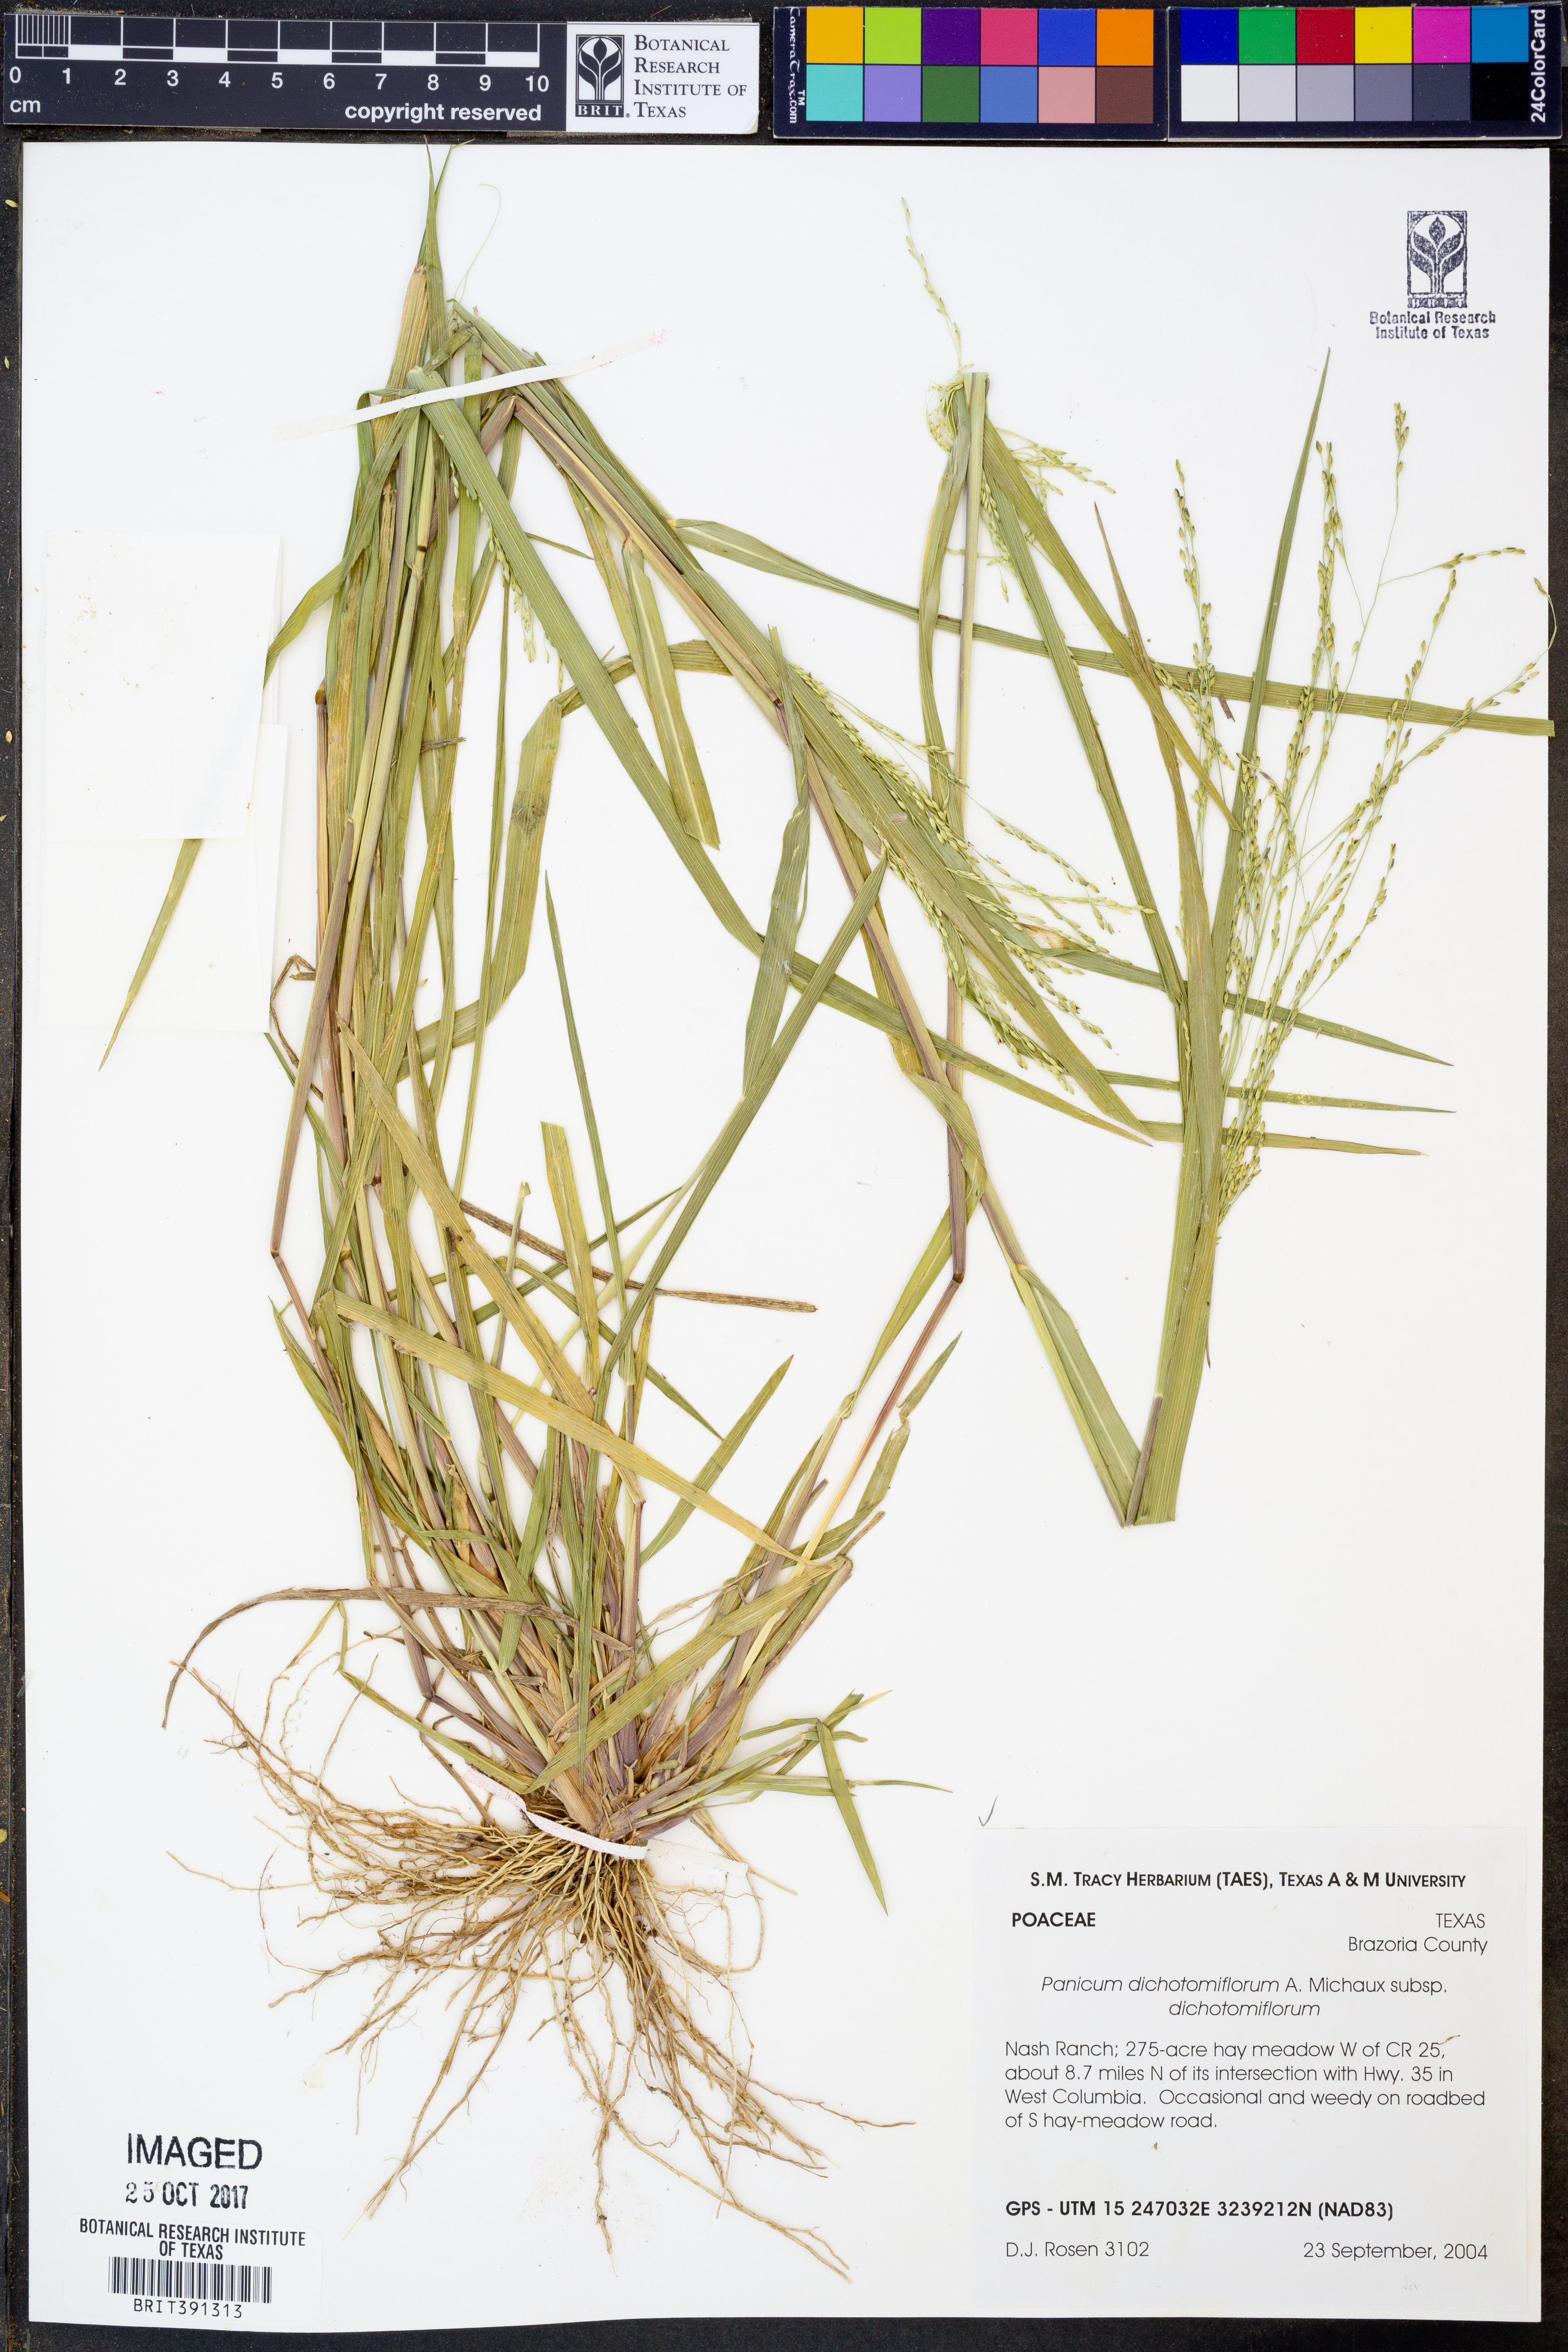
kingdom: Plantae
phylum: Tracheophyta
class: Liliopsida
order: Poales
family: Poaceae
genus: Panicum
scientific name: Panicum dichotomiflorum
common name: Autumn millet
